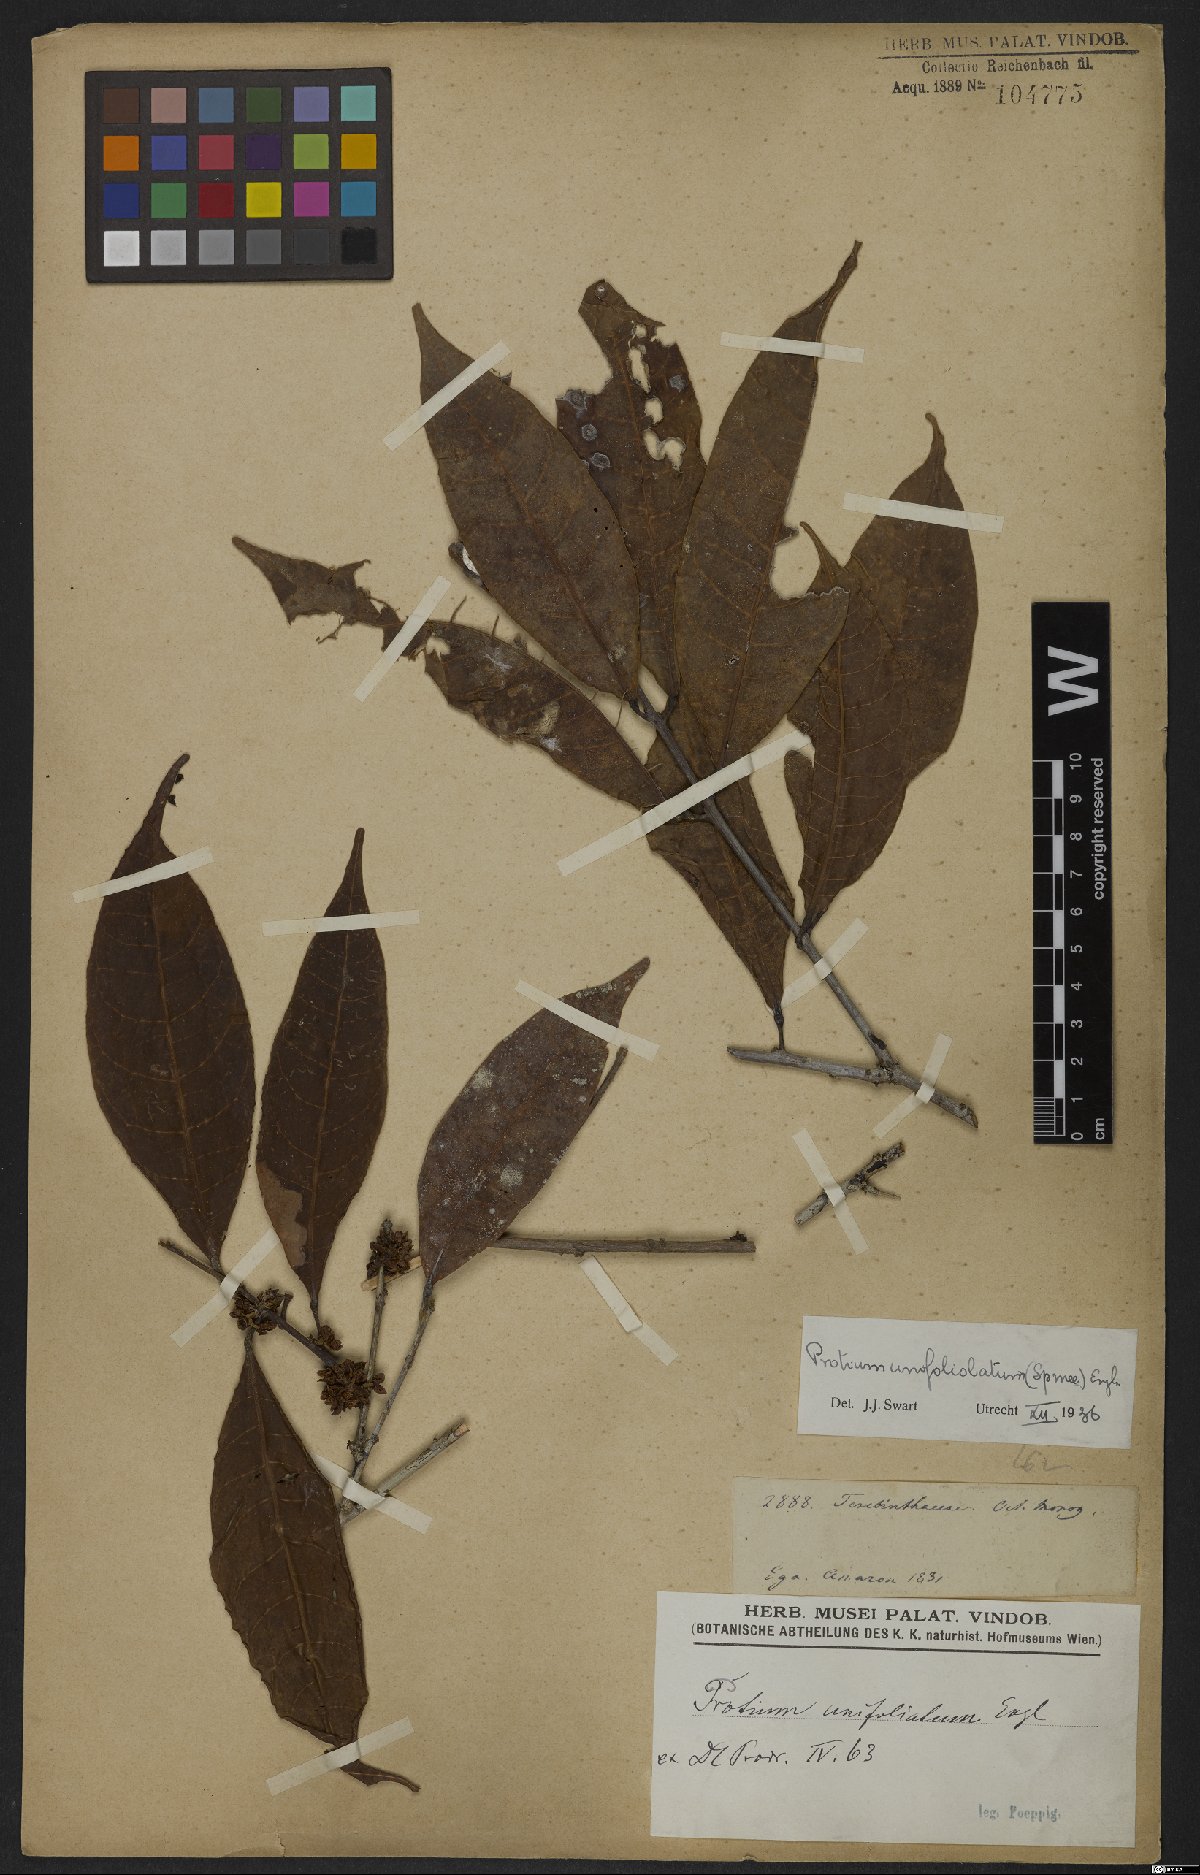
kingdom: Plantae
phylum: Tracheophyta
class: Magnoliopsida
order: Sapindales
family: Burseraceae
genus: Protium
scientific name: Protium unifoliolatum
